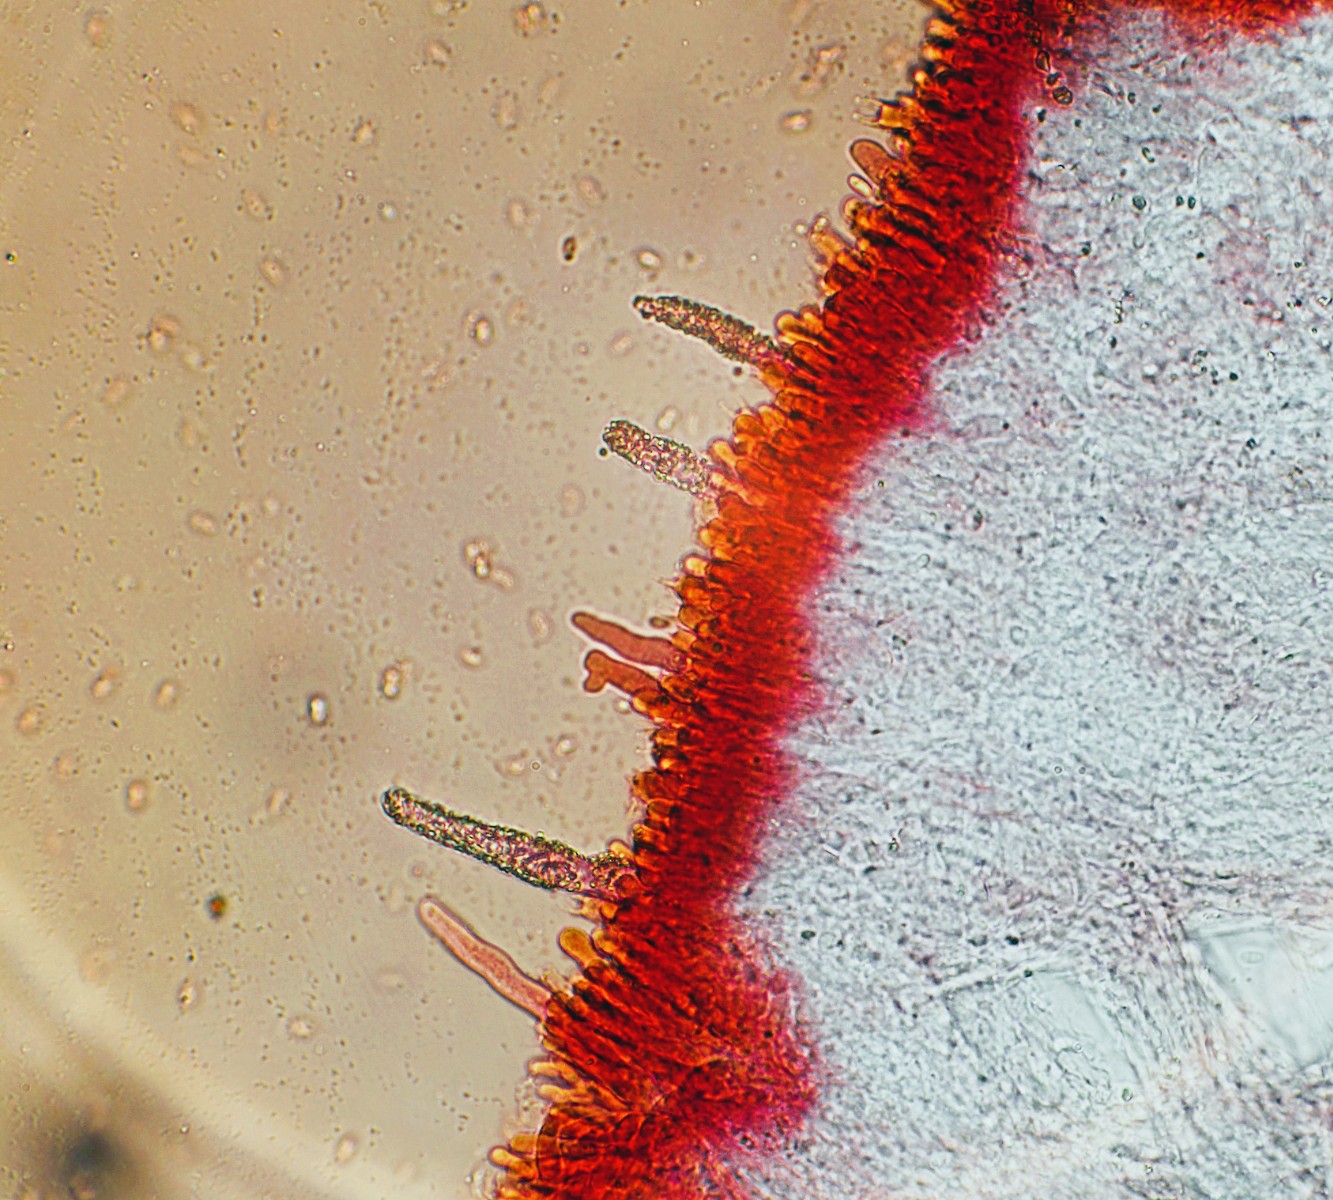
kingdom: Fungi
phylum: Basidiomycota
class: Agaricomycetes
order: Polyporales
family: Phanerochaetaceae
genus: Phanerochaete
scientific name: Phanerochaete velutina
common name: dunet randtråd
